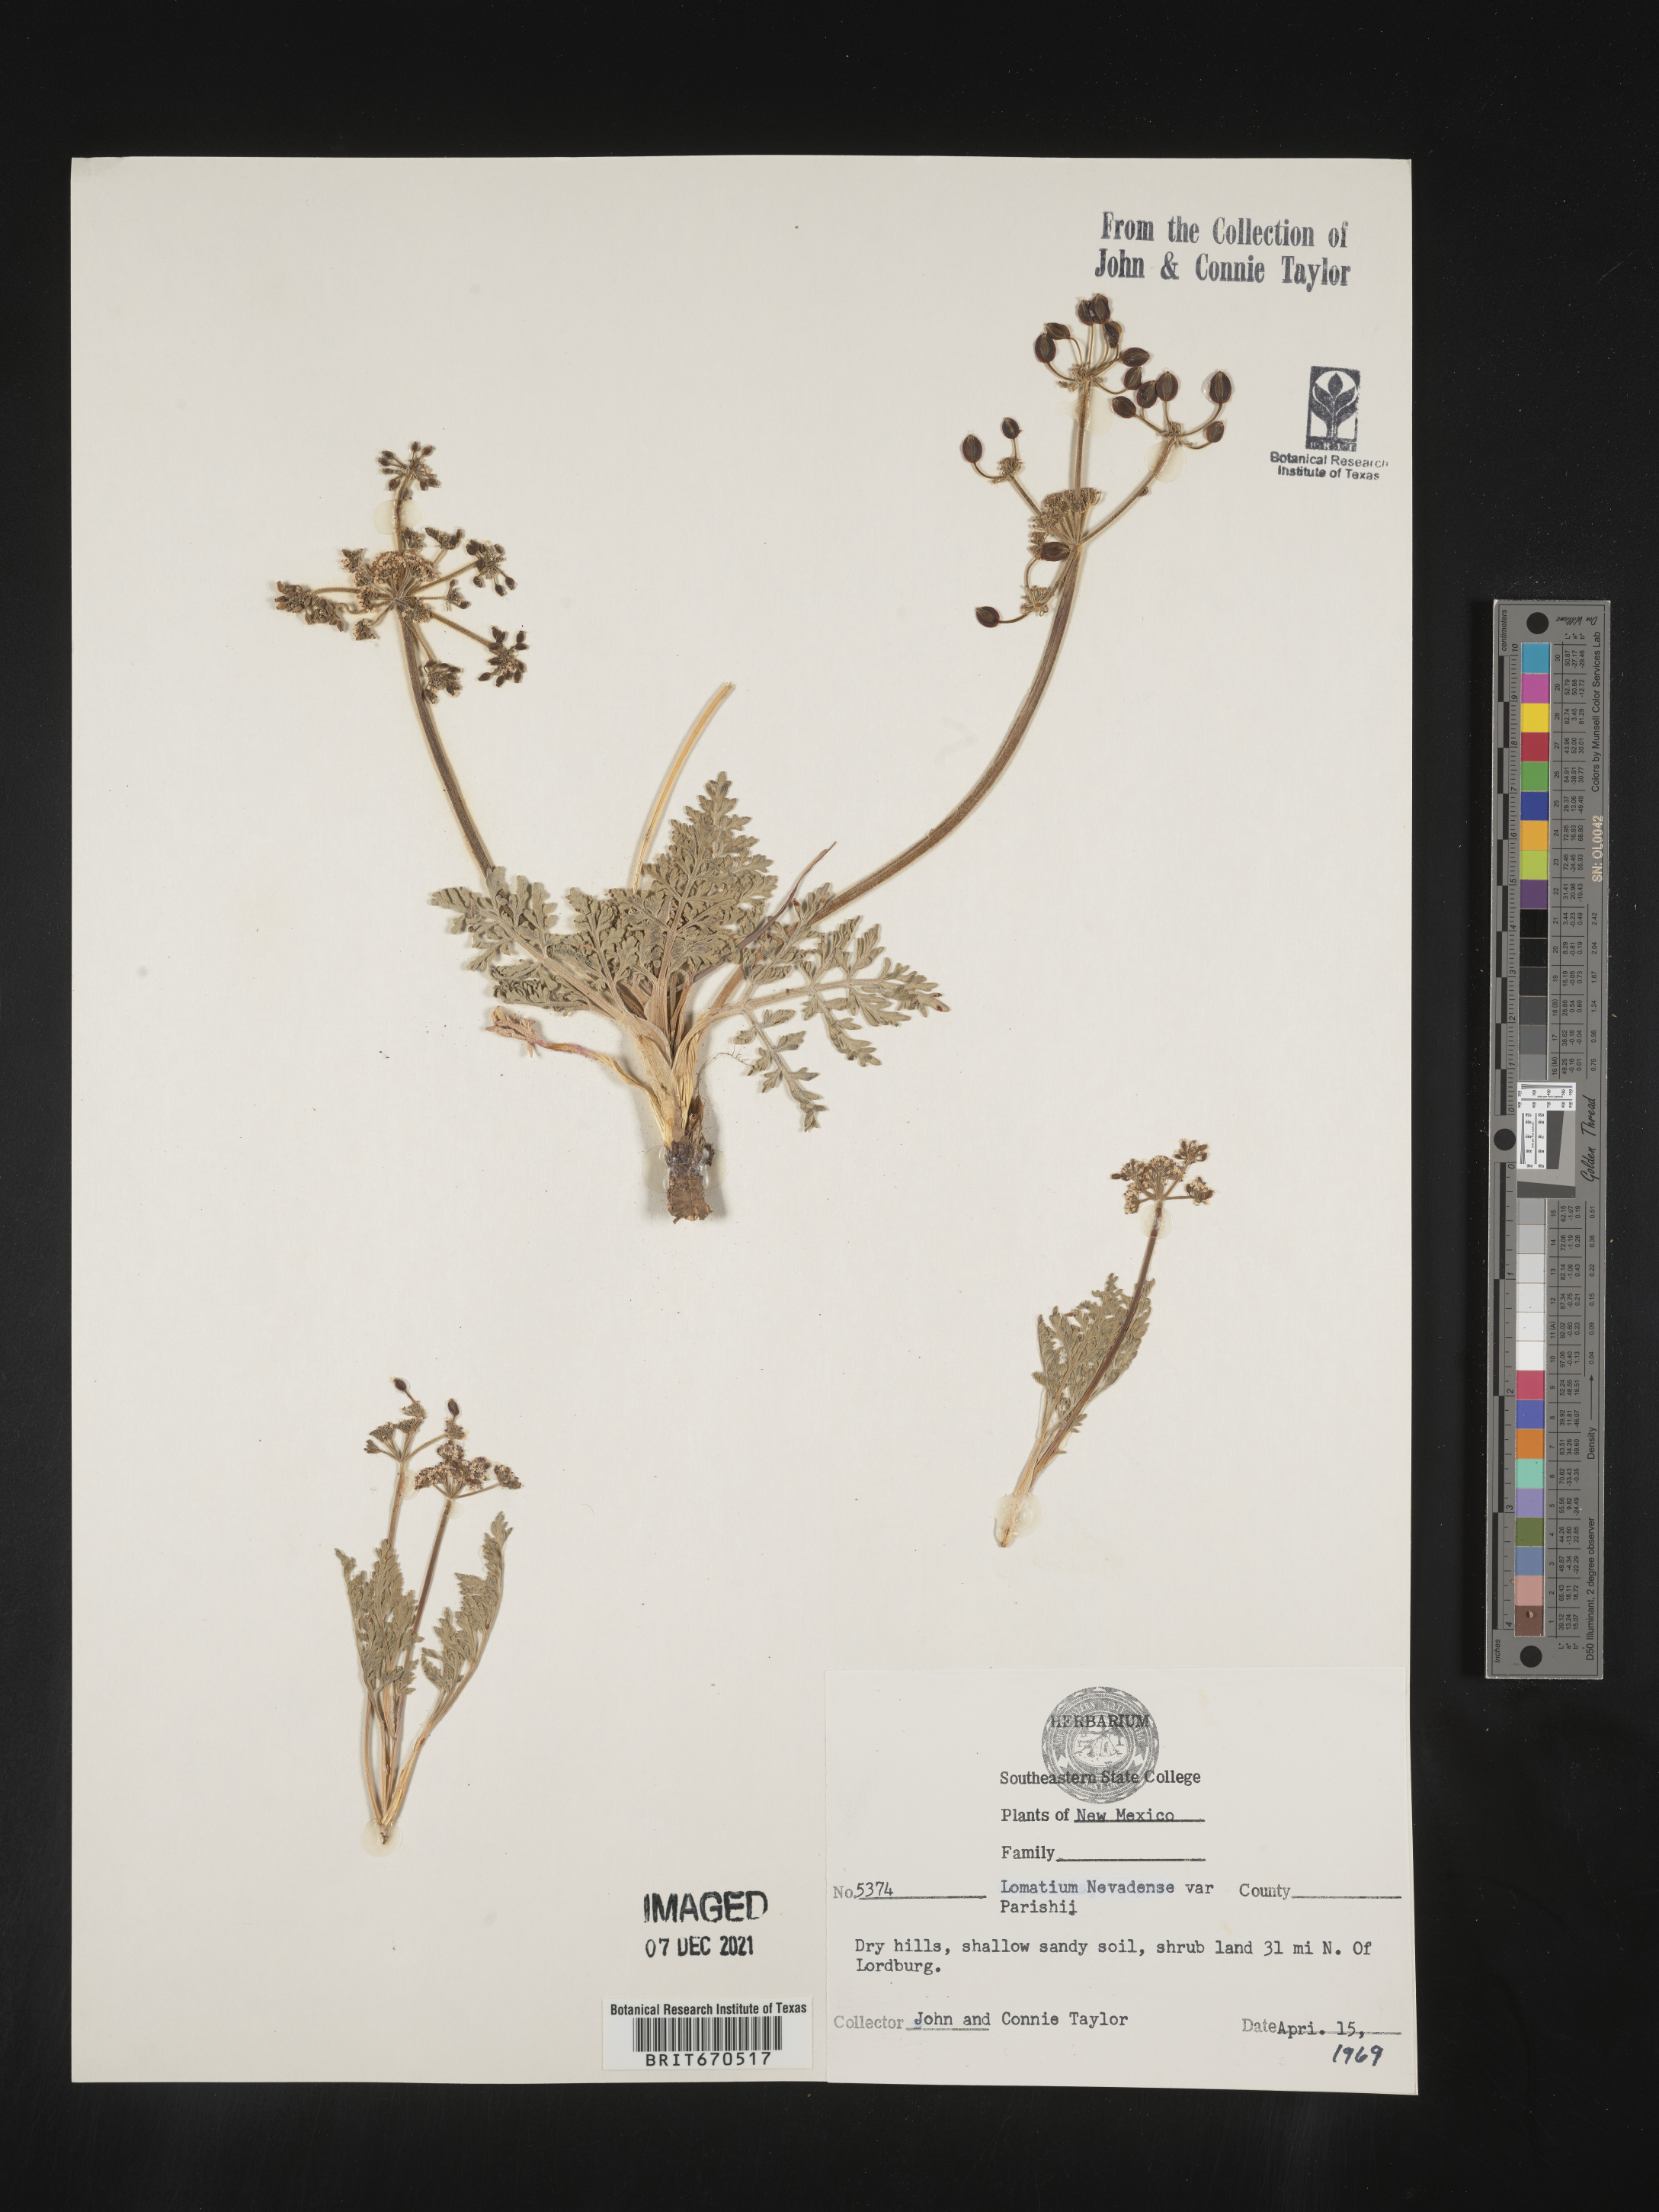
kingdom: Plantae
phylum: Tracheophyta
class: Magnoliopsida
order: Apiales
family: Apiaceae
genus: Lomatium
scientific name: Lomatium nevadense
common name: Nevada lomatium
